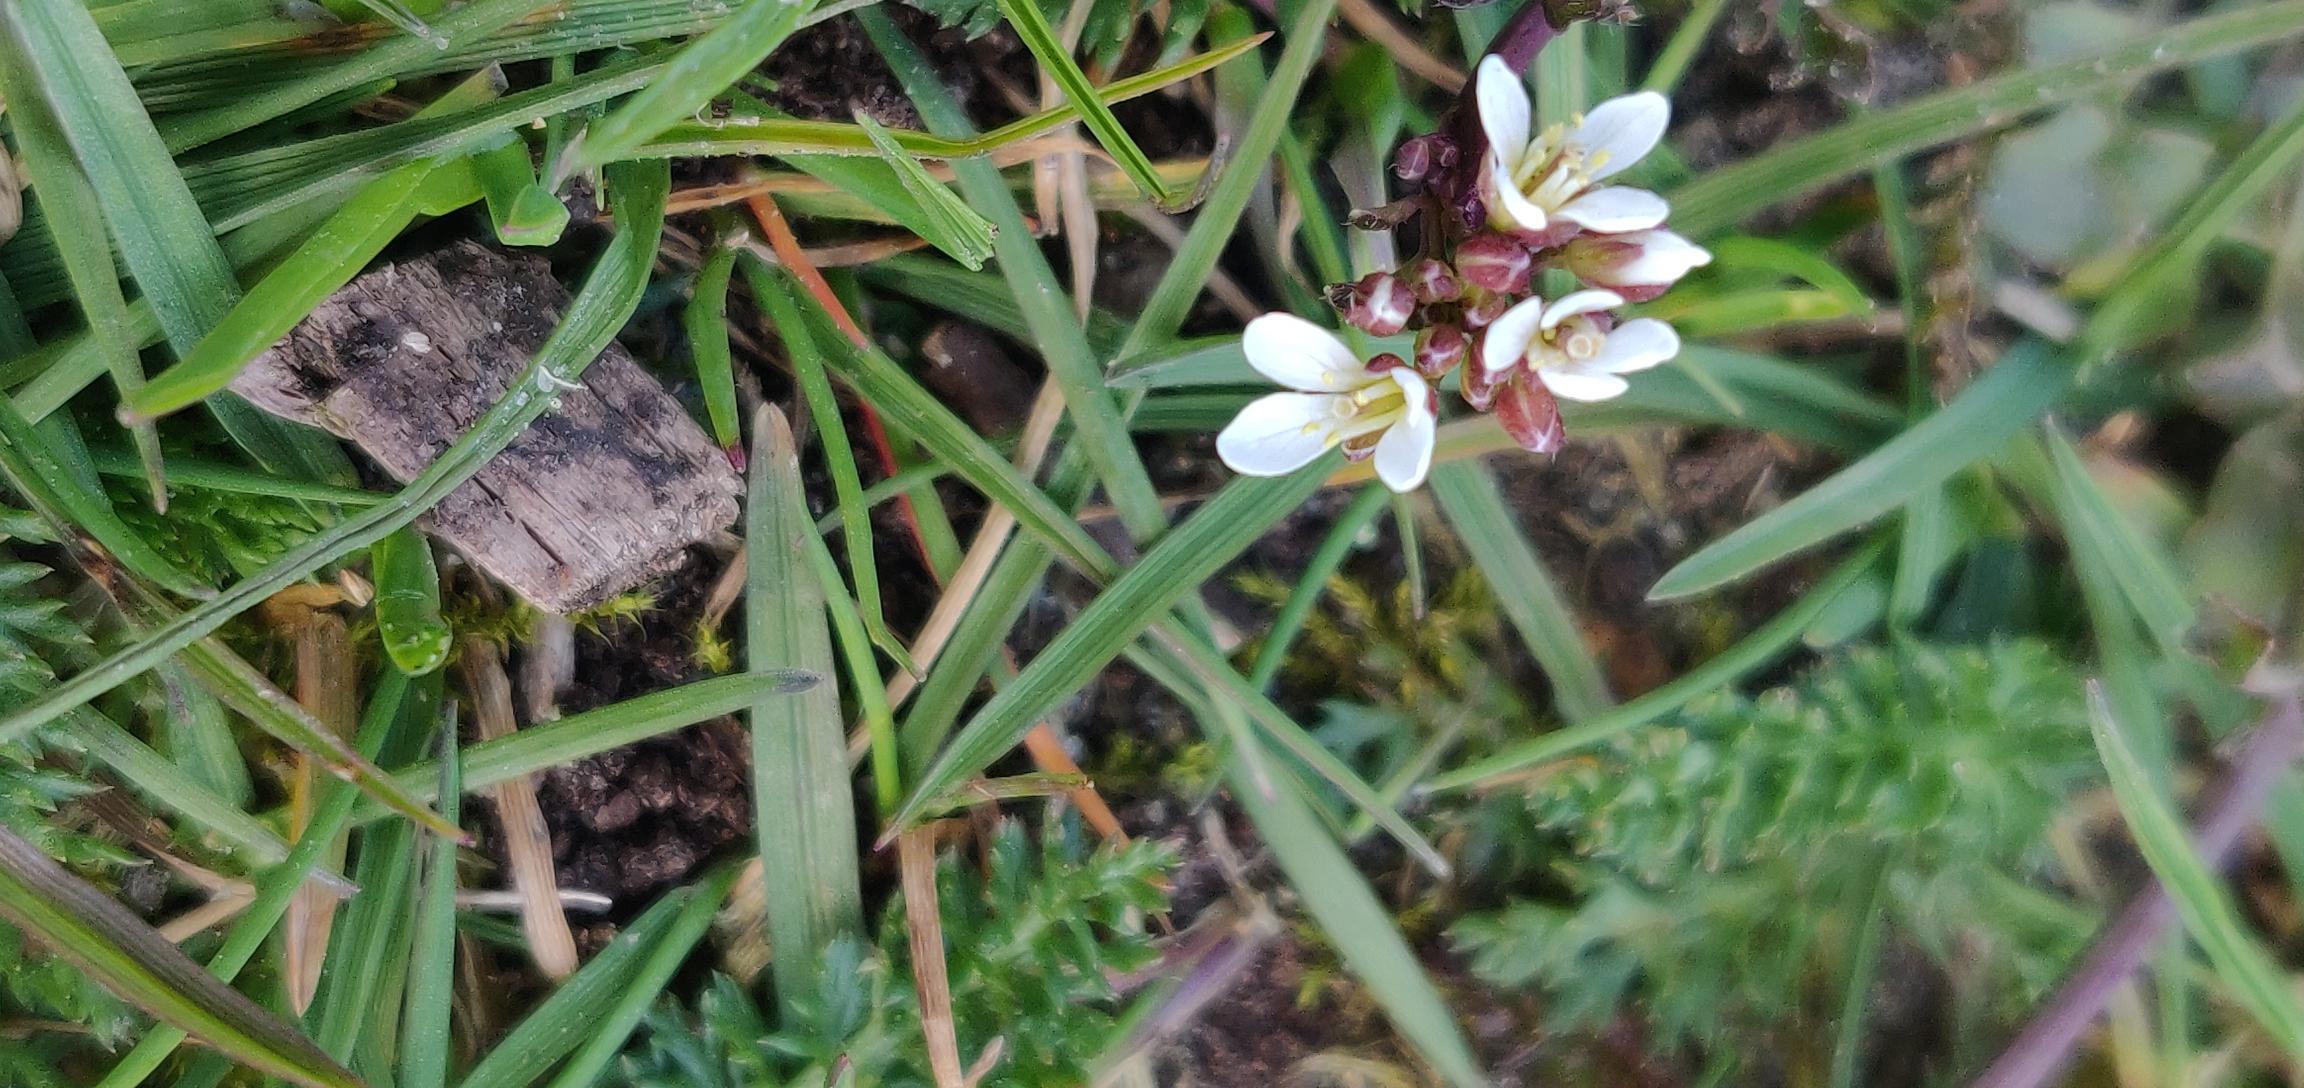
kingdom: Plantae
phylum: Tracheophyta
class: Magnoliopsida
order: Brassicales
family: Brassicaceae
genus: Draba
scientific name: Draba verna
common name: Vår-gæslingeblomst
